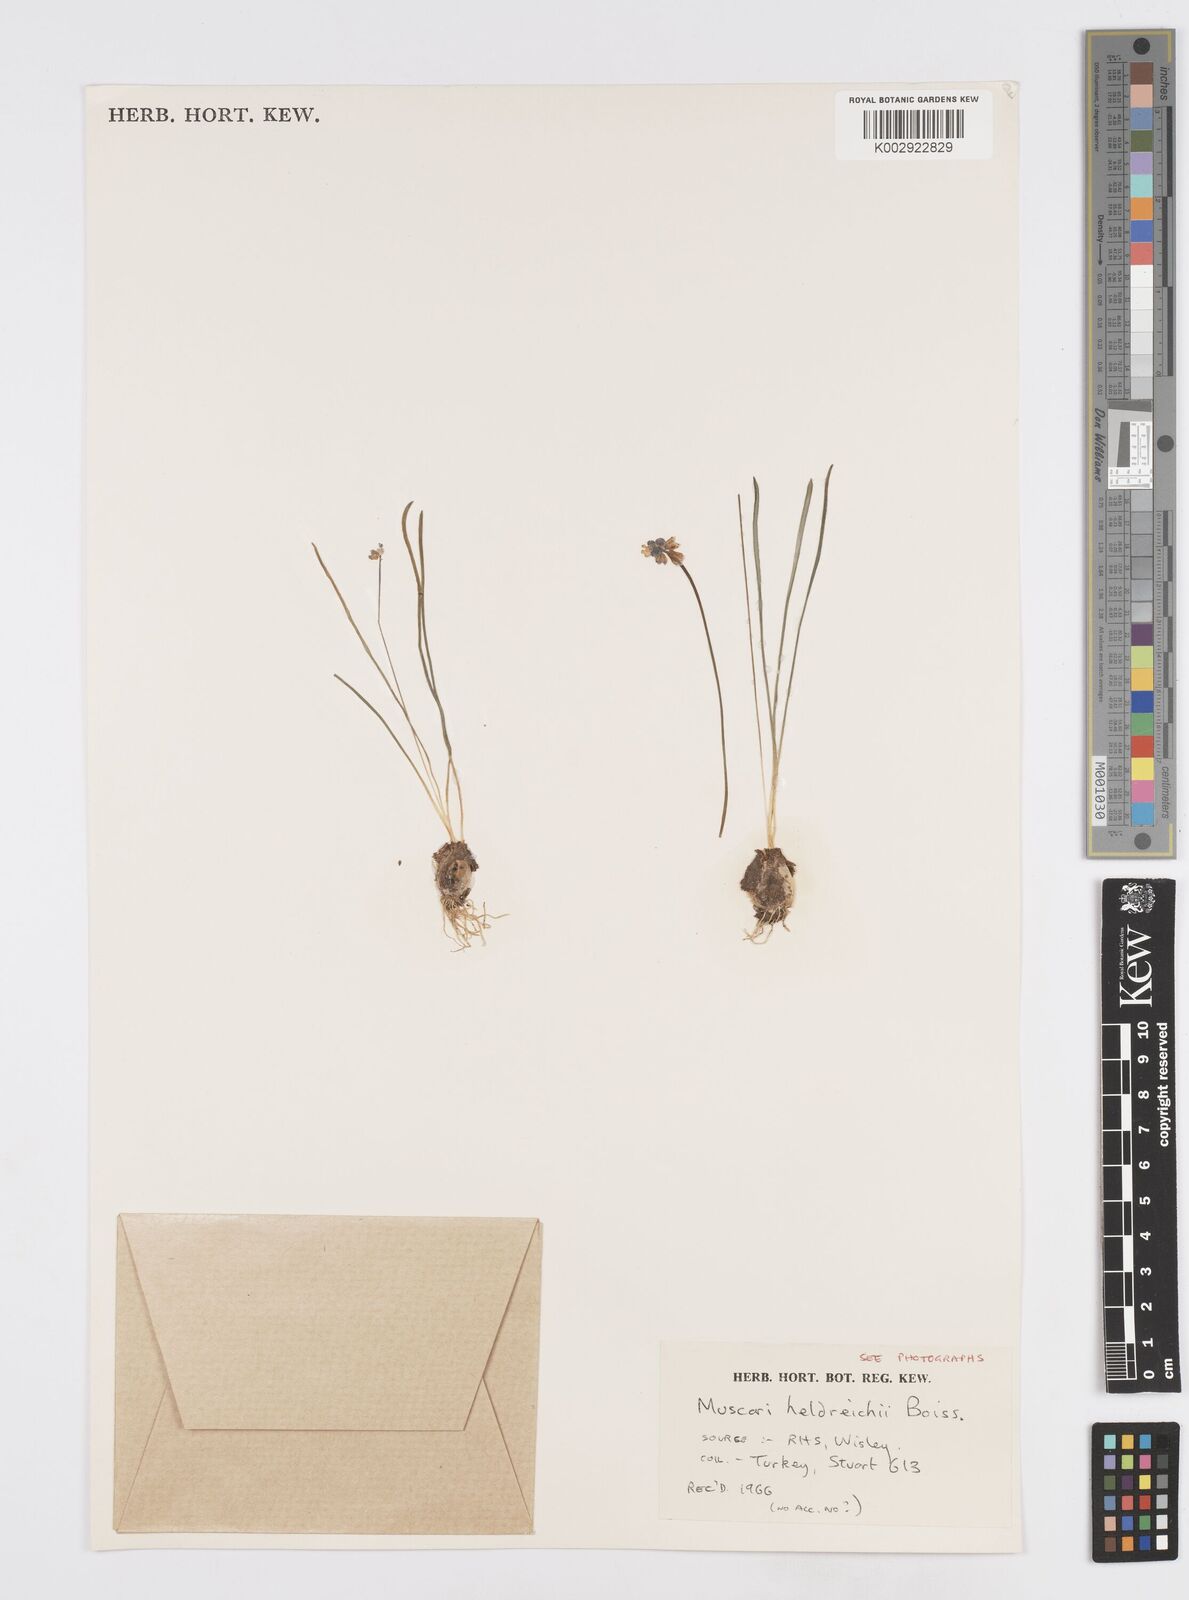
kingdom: Plantae
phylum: Tracheophyta
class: Liliopsida
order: Asparagales
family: Asparagaceae
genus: Muscari
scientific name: Muscari botryoides
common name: Compact grape-hyacinth
